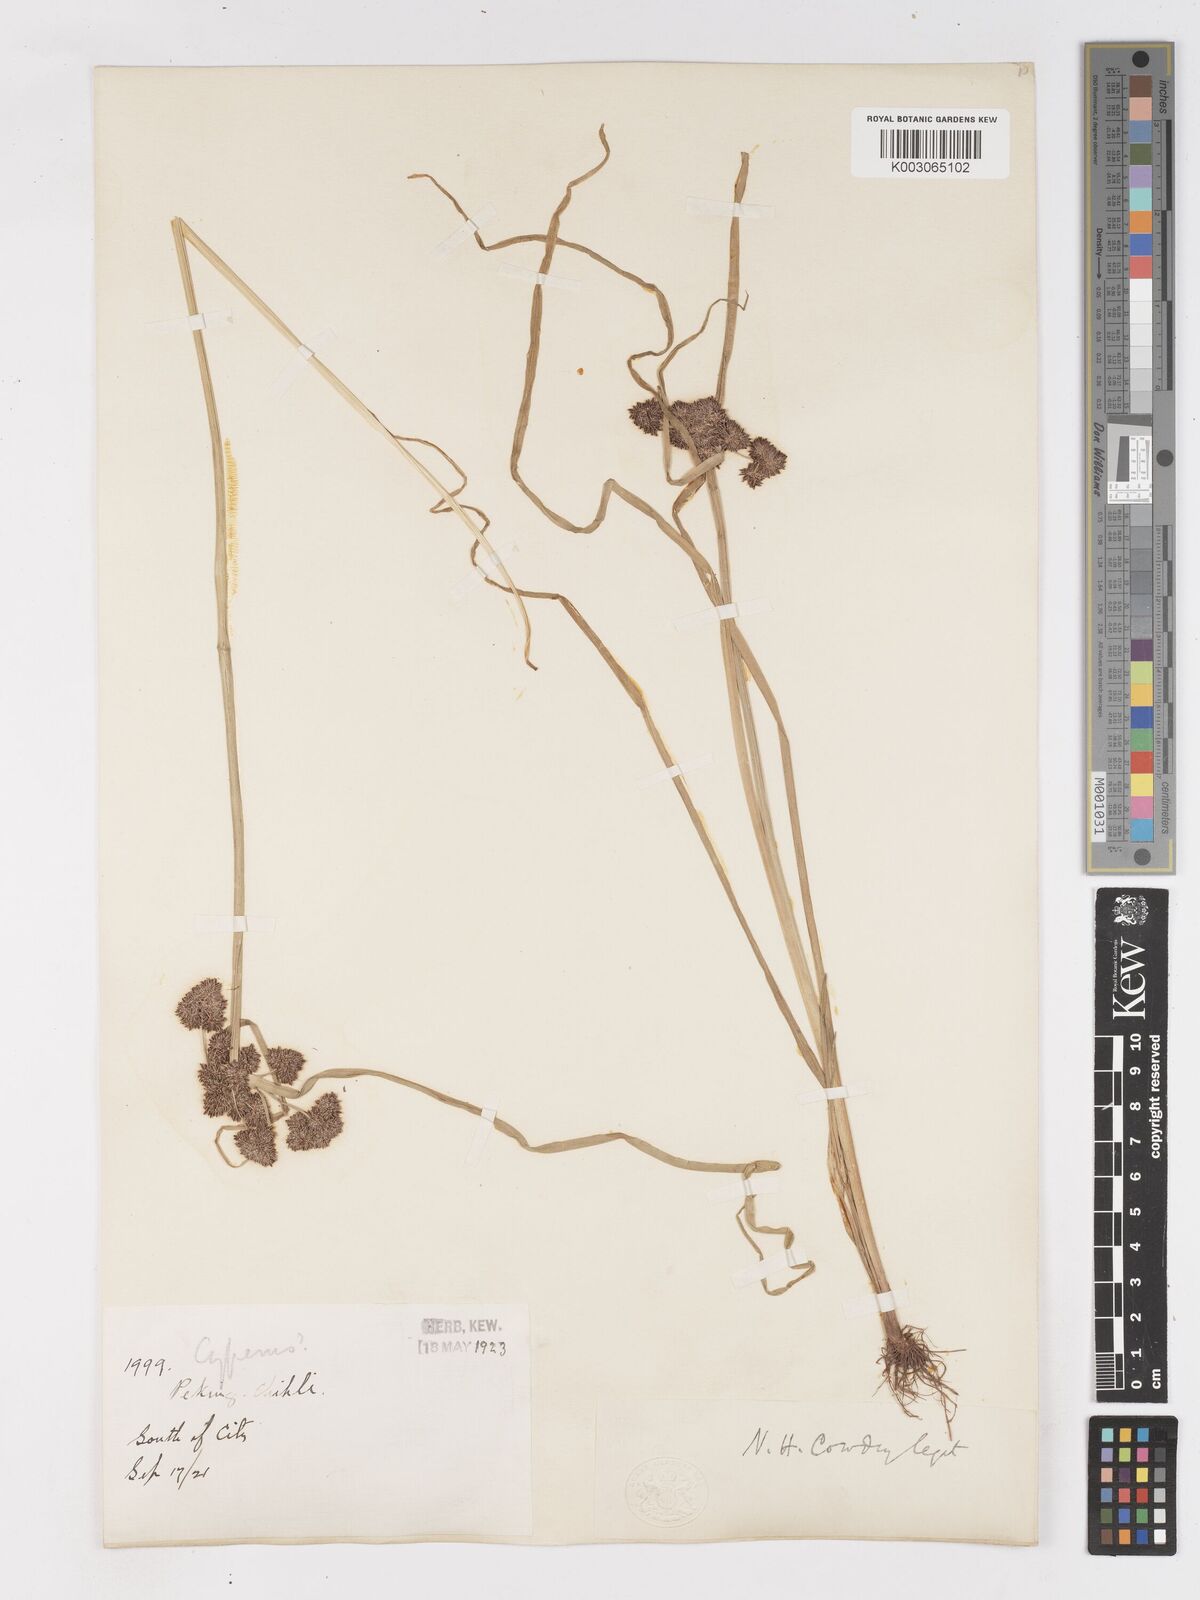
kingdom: Plantae
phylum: Tracheophyta
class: Liliopsida
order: Poales
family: Cyperaceae
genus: Cyperus
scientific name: Cyperus difformis
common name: Variable flatsedge
